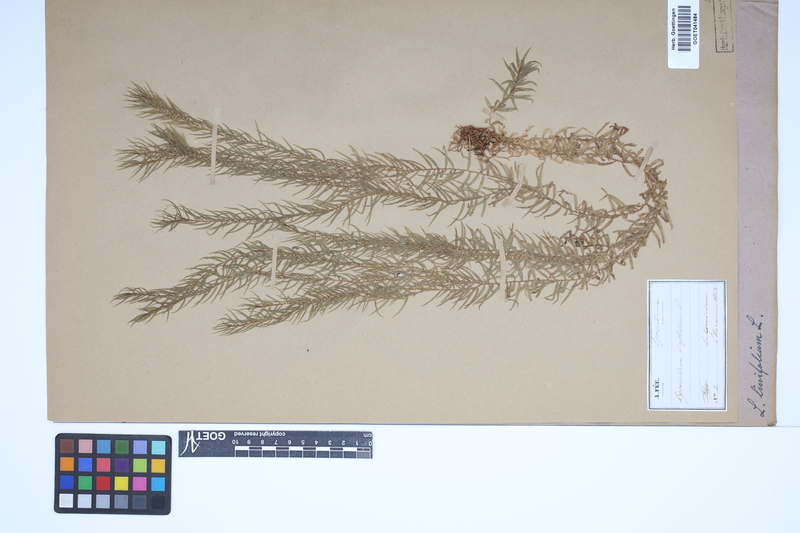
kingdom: Plantae
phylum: Tracheophyta
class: Lycopodiopsida
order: Lycopodiales
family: Lycopodiaceae
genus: Phlegmariurus
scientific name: Phlegmariurus linifolius
